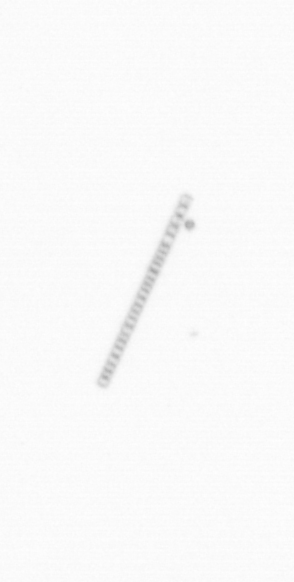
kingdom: Chromista
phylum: Ochrophyta
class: Bacillariophyceae
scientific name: Bacillariophyceae
